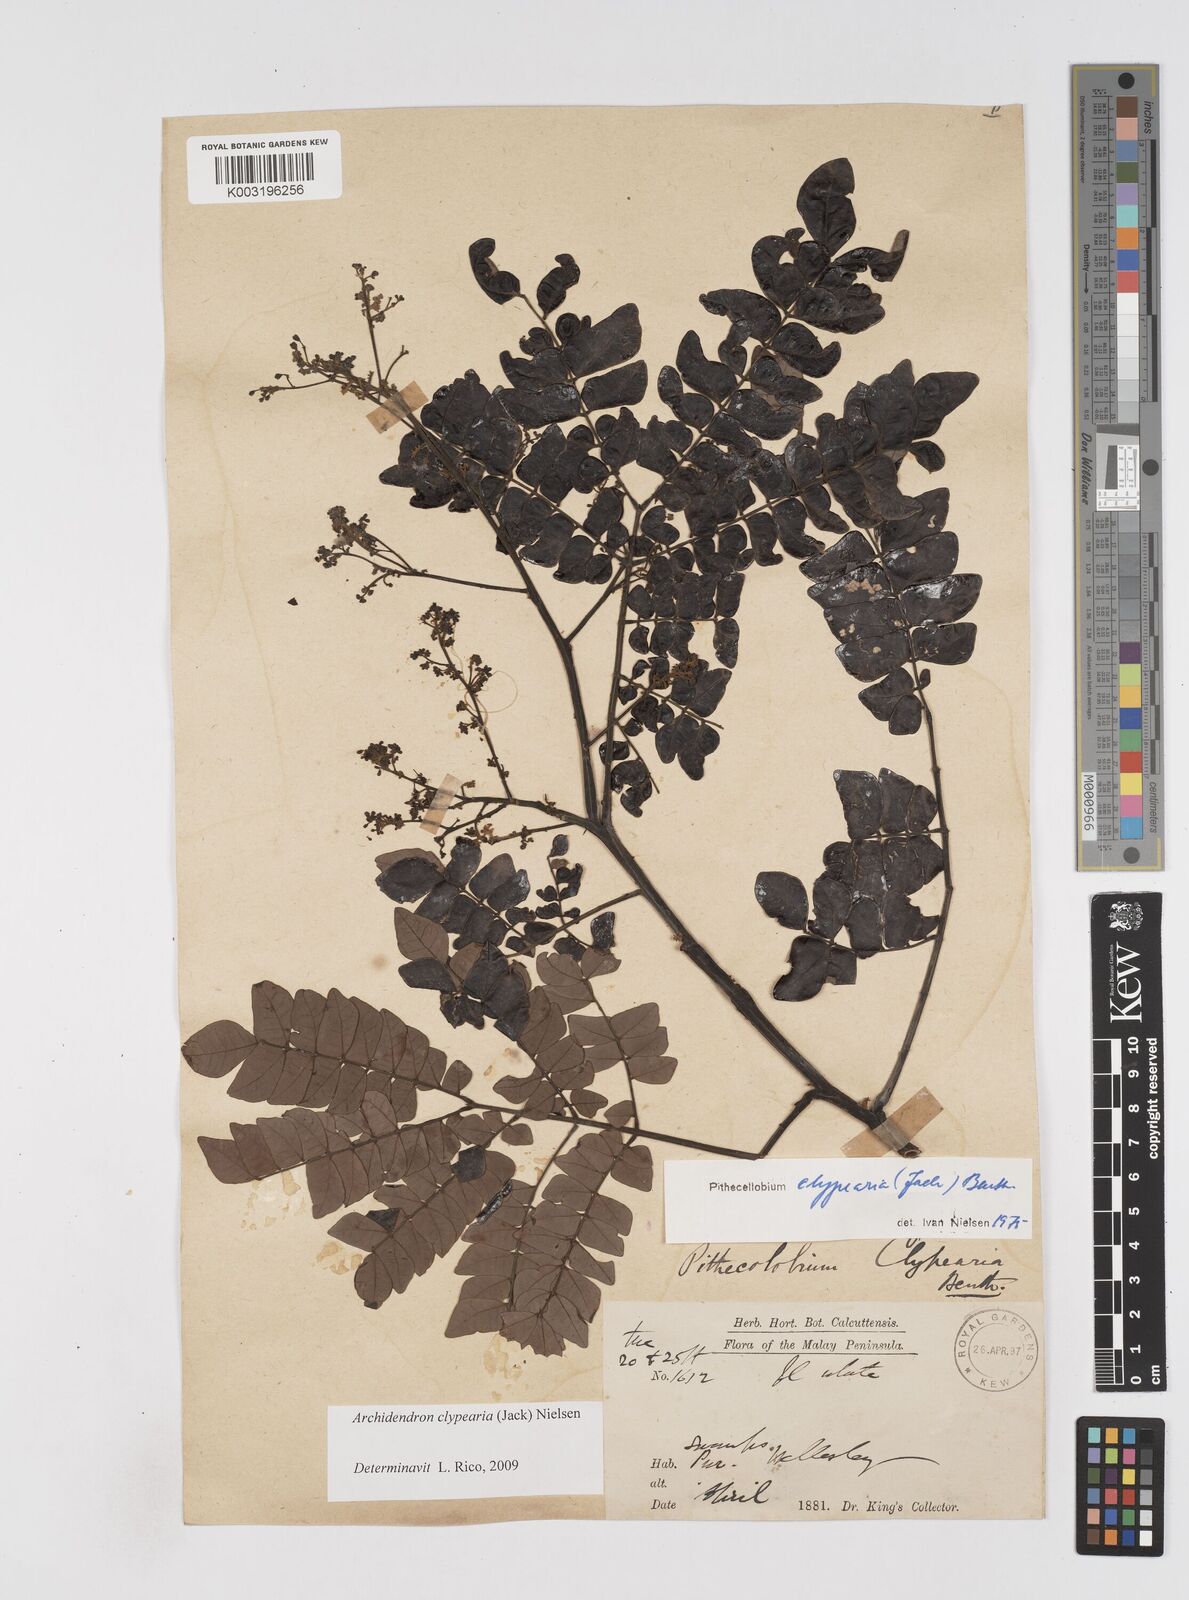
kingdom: Plantae
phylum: Tracheophyta
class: Magnoliopsida
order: Fabales
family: Fabaceae
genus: Archidendron
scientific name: Archidendron clypearia
